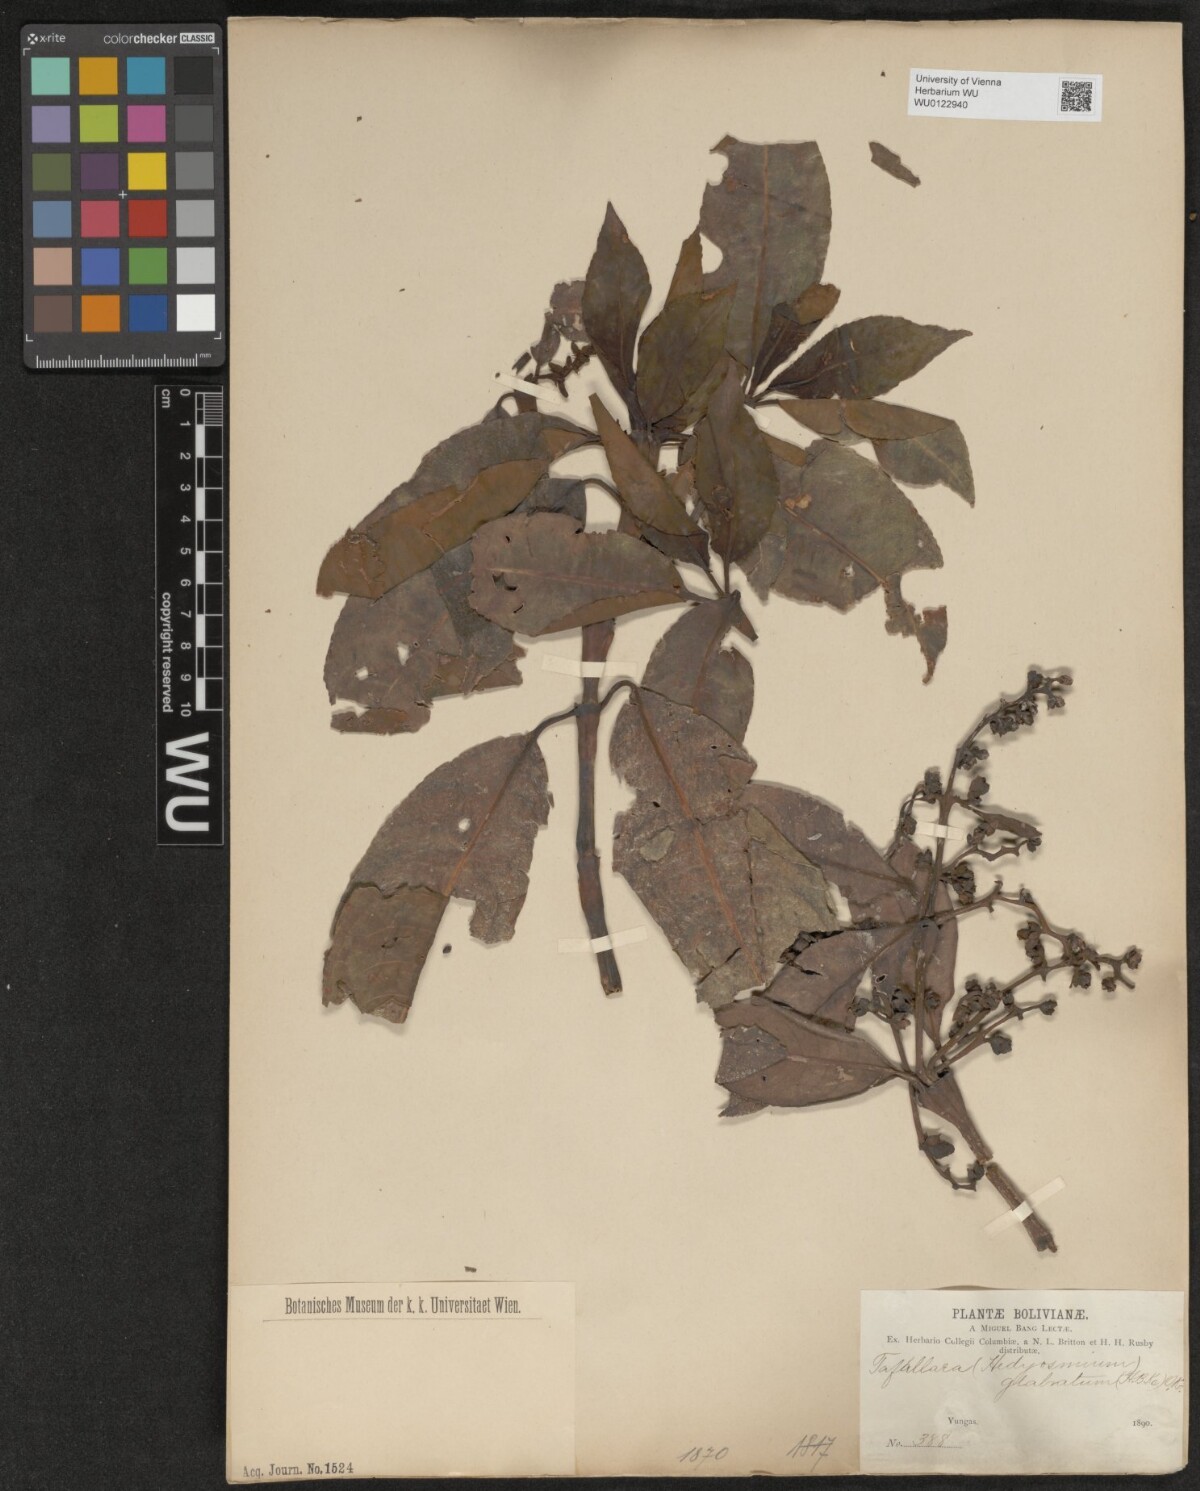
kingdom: Plantae
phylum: Tracheophyta
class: Magnoliopsida
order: Chloranthales
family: Chloranthaceae
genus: Hedyosmum
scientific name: Hedyosmum racemosum
